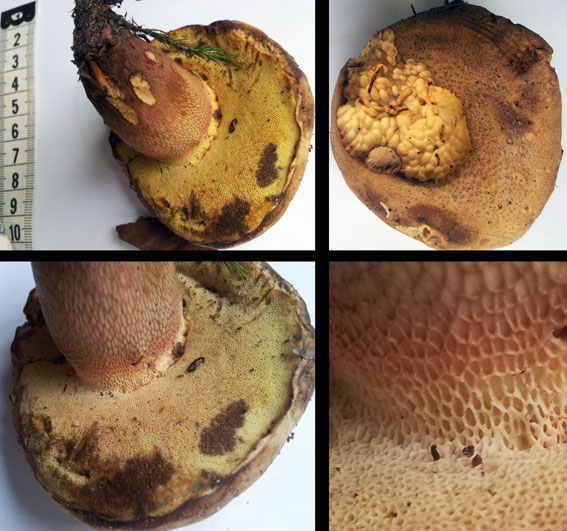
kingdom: Fungi
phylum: Basidiomycota
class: Agaricomycetes
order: Boletales
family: Boletaceae
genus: Caloboletus
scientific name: Caloboletus calopus
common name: skønfodet rørhat
